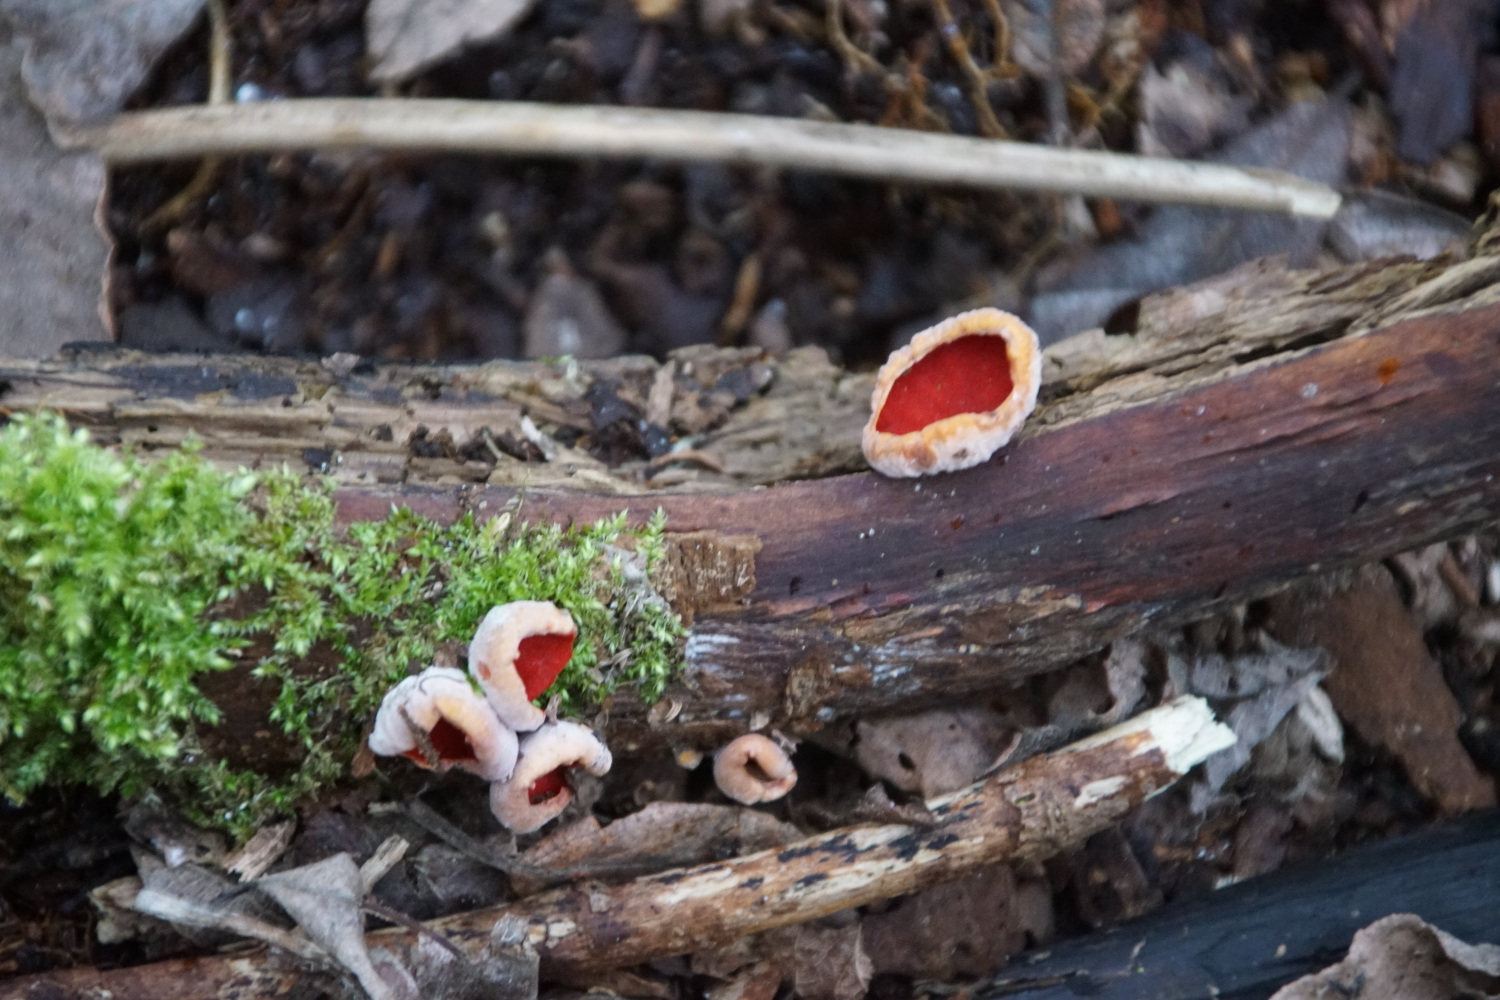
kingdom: Fungi
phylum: Ascomycota
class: Pezizomycetes
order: Pezizales
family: Sarcoscyphaceae
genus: Sarcoscypha
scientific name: Sarcoscypha austriaca
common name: krølhåret pragtbæger
